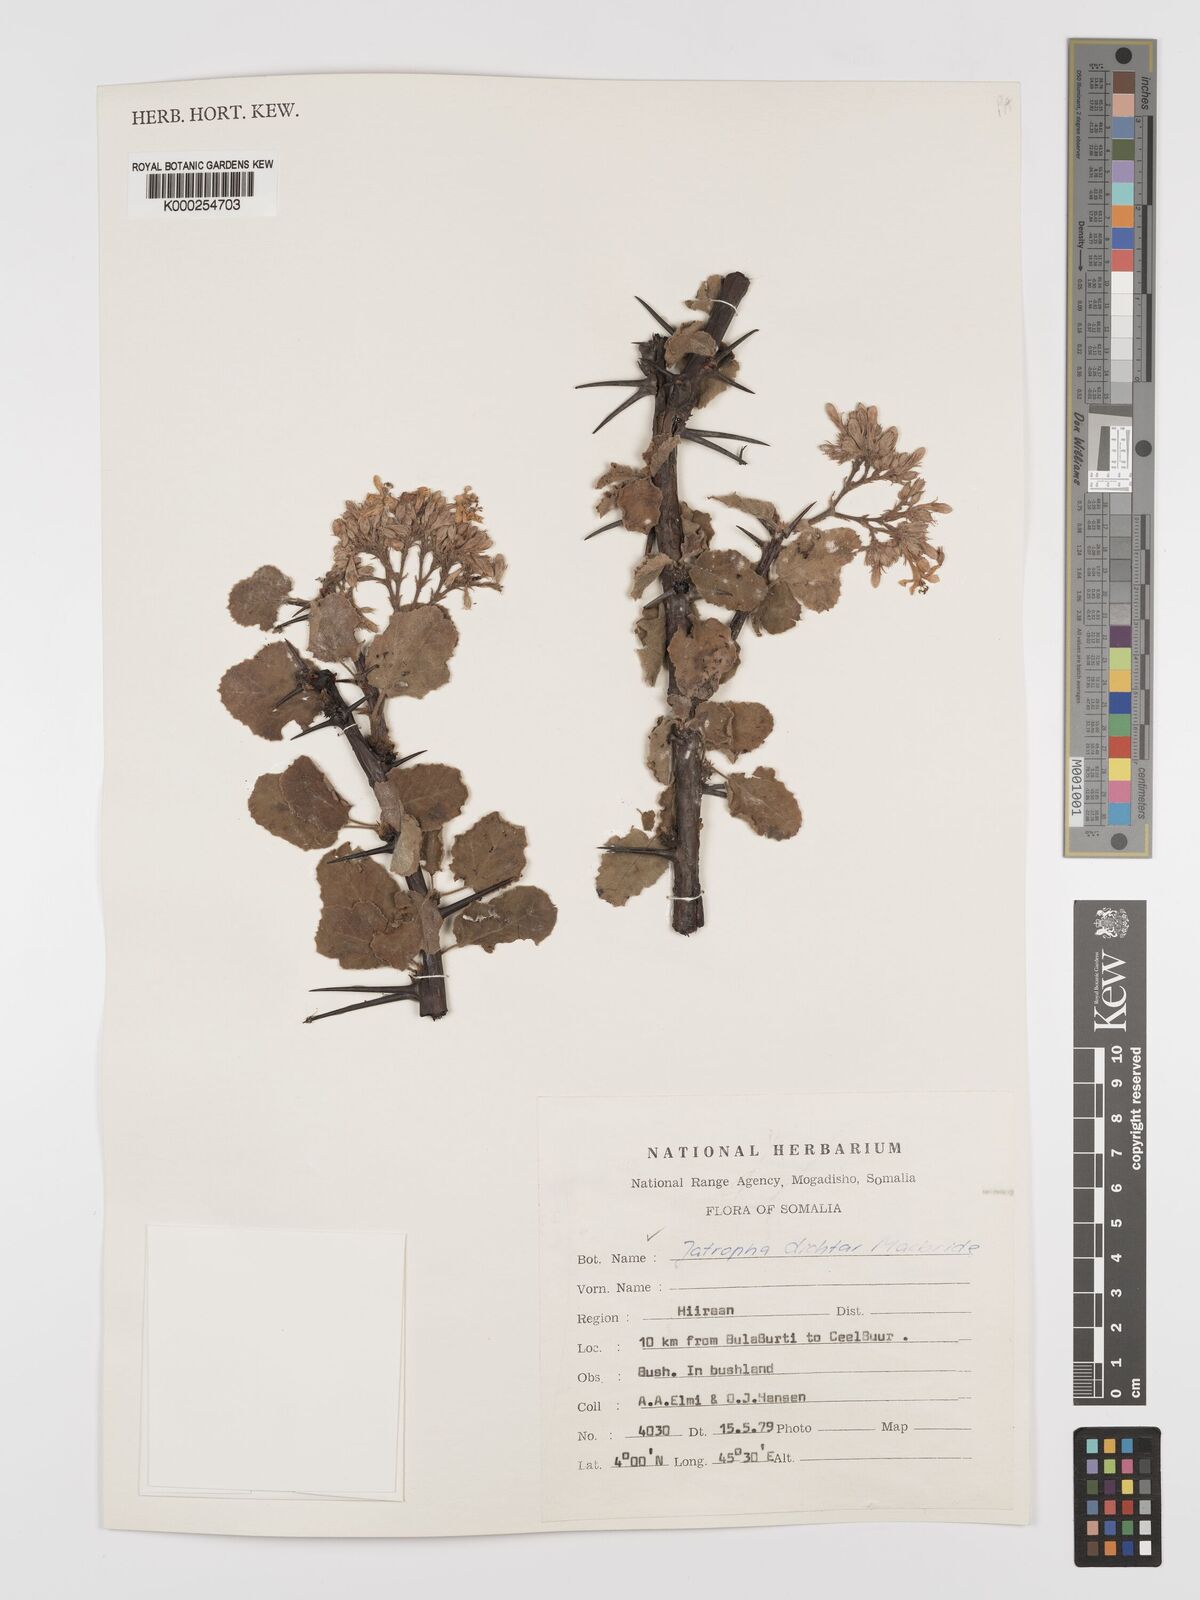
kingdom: Plantae
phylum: Tracheophyta
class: Magnoliopsida
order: Malpighiales
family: Euphorbiaceae
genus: Jatropha
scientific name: Jatropha dichtar
